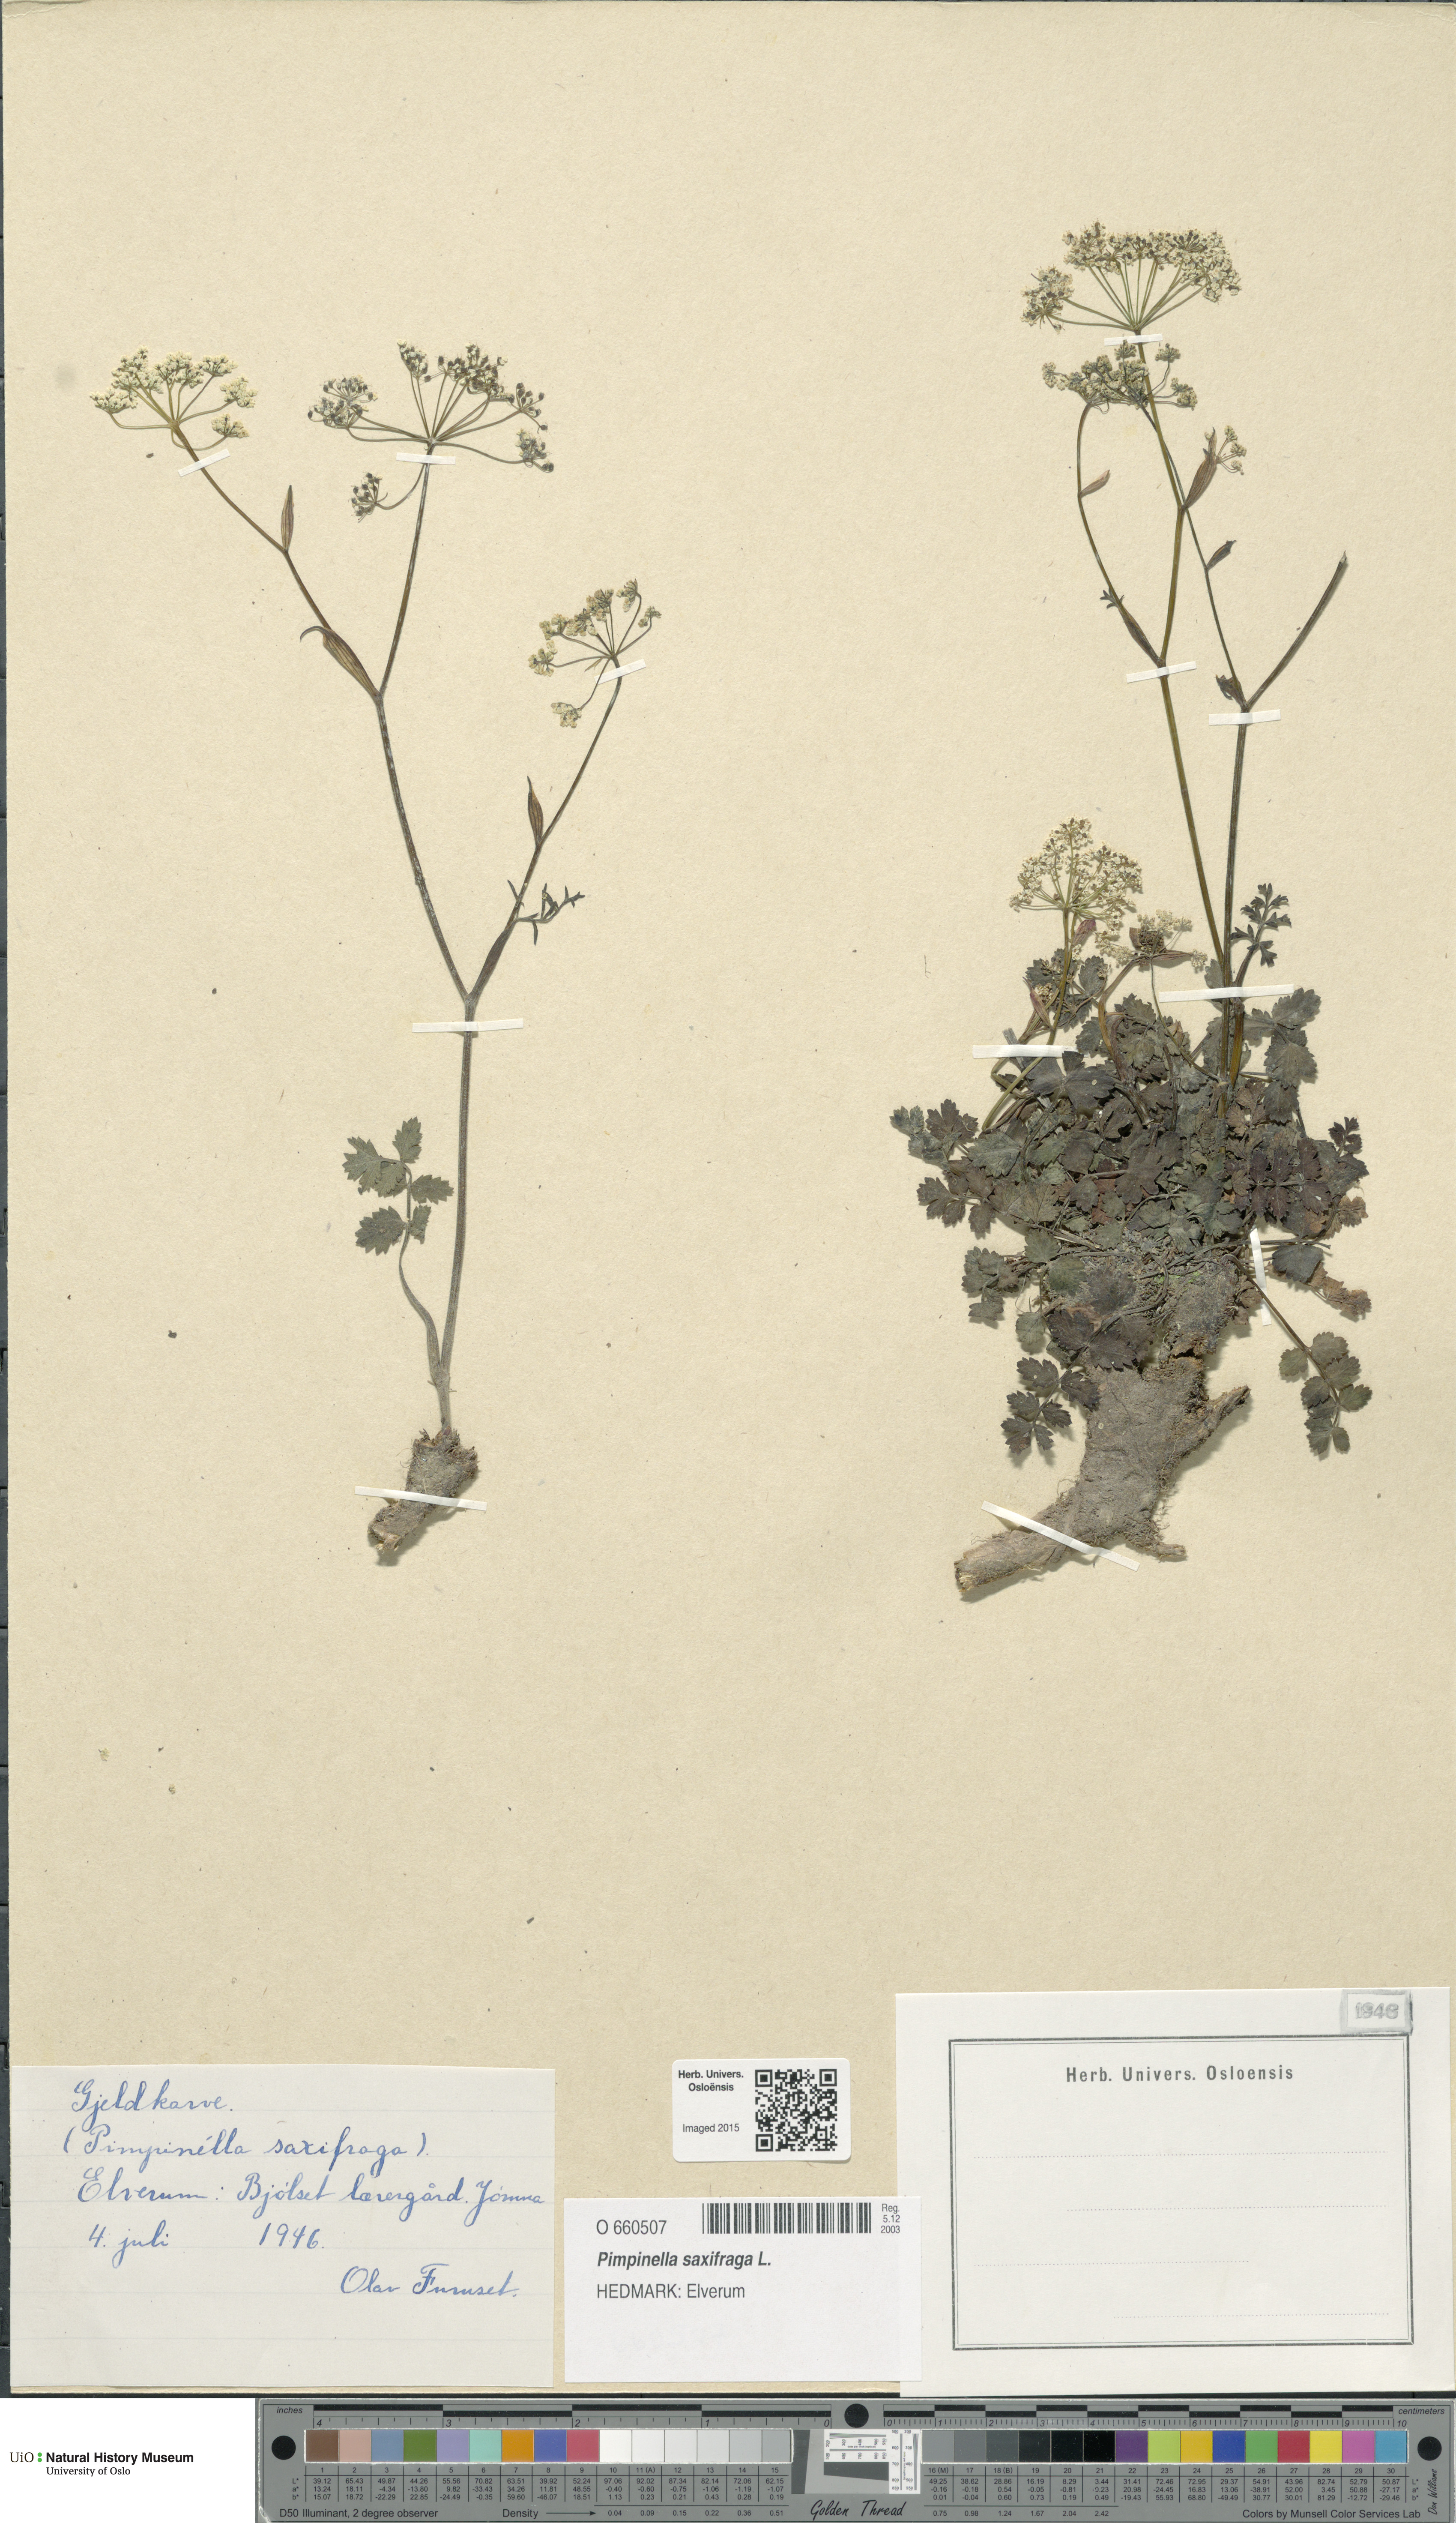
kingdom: Plantae
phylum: Tracheophyta
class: Magnoliopsida
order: Apiales
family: Apiaceae
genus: Pimpinella
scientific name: Pimpinella saxifraga
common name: Burnet-saxifrage
